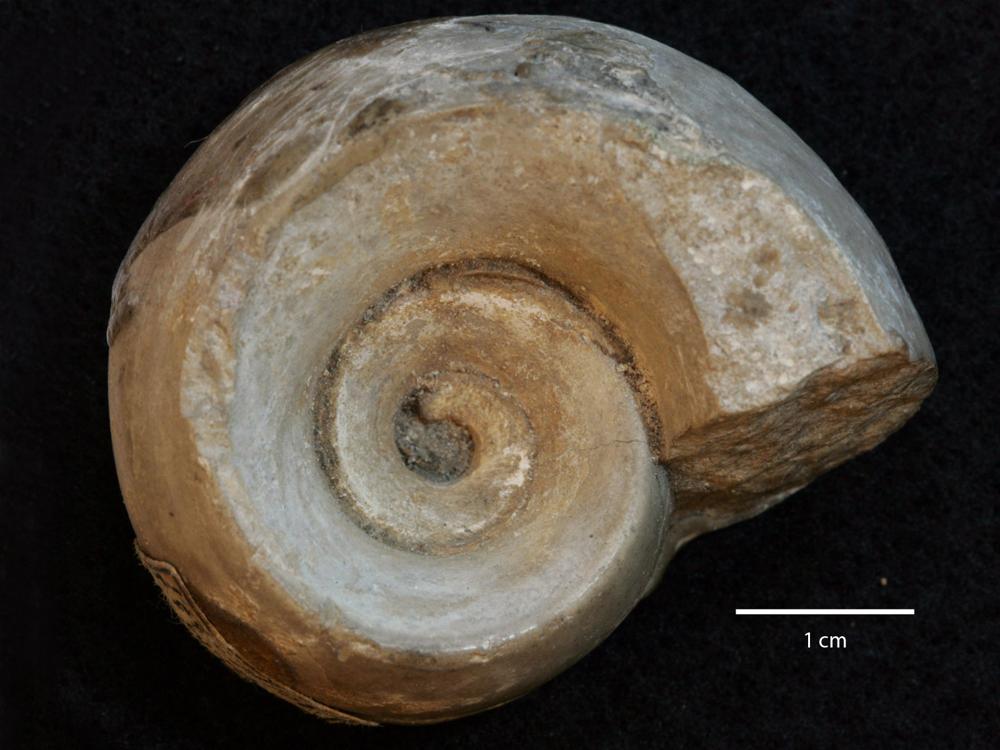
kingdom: Animalia
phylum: Mollusca
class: Gastropoda
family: Lesueurillidae
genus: Lesueurilla
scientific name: Lesueurilla Maclurea infundibulum
